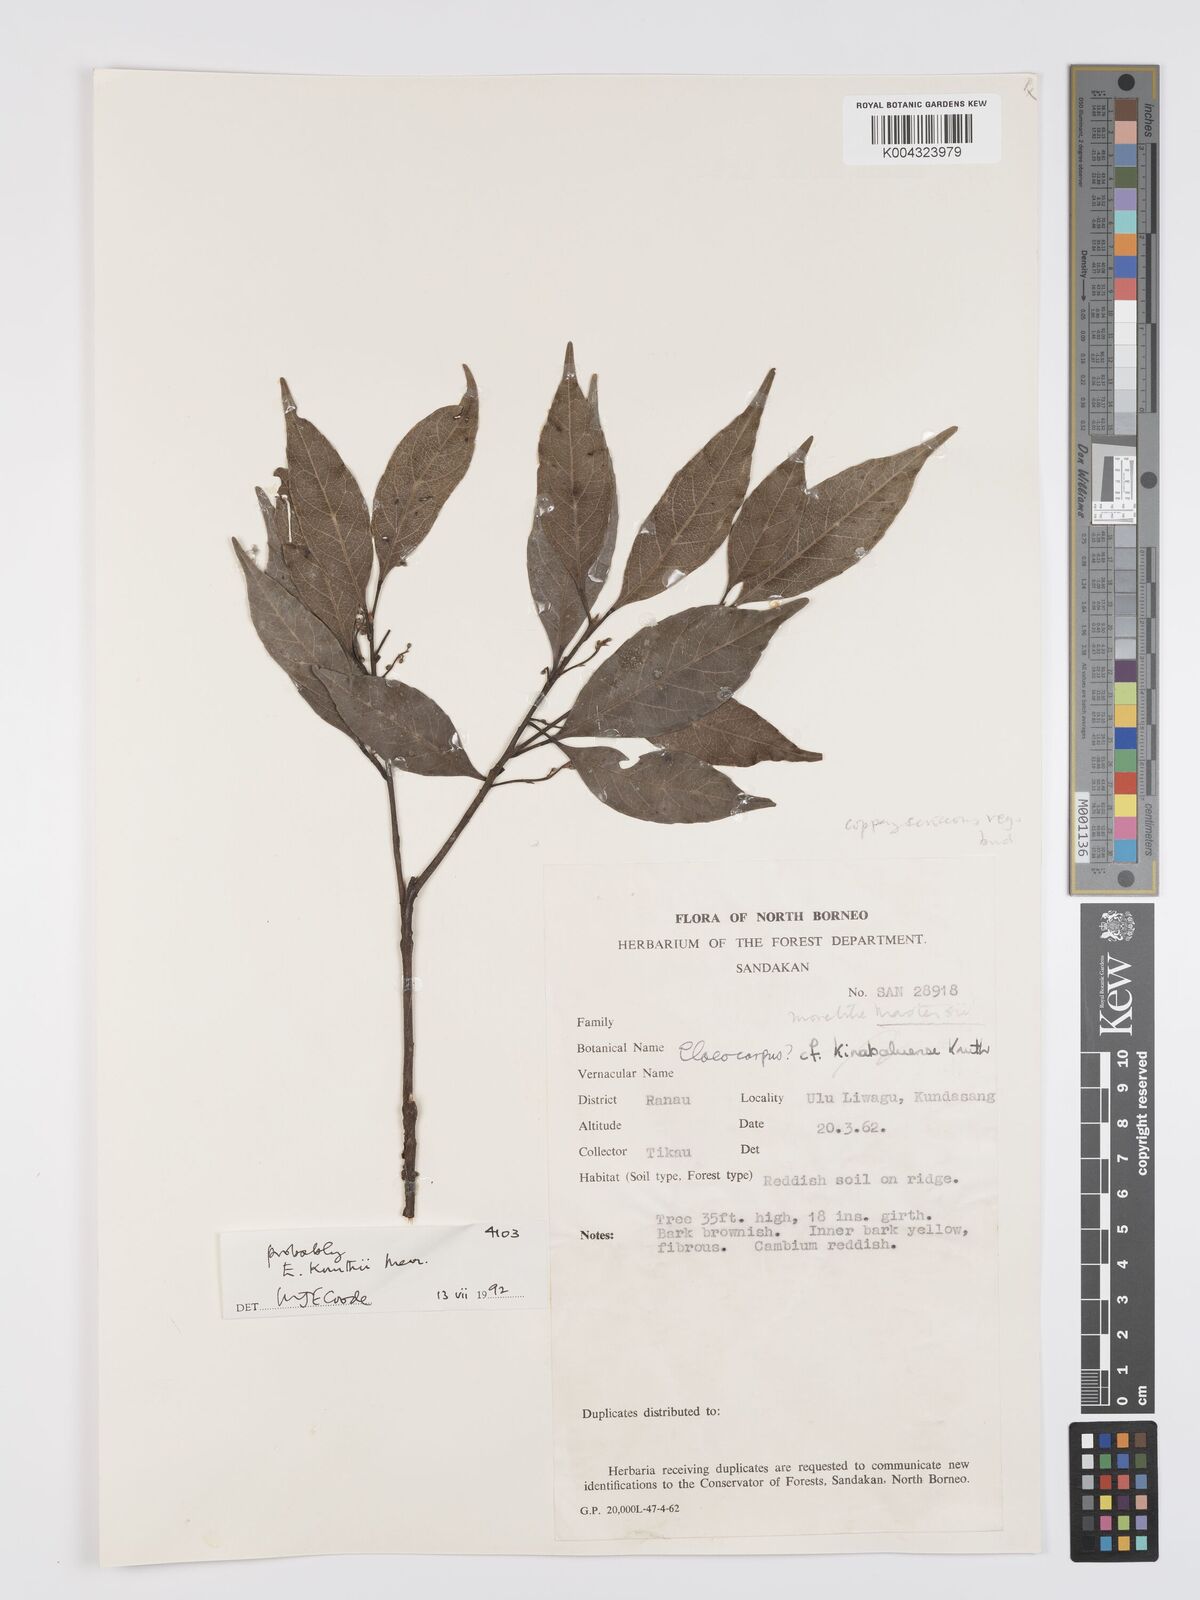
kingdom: Plantae
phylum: Tracheophyta
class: Magnoliopsida
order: Oxalidales
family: Elaeocarpaceae
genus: Elaeocarpus
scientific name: Elaeocarpus knuthii
